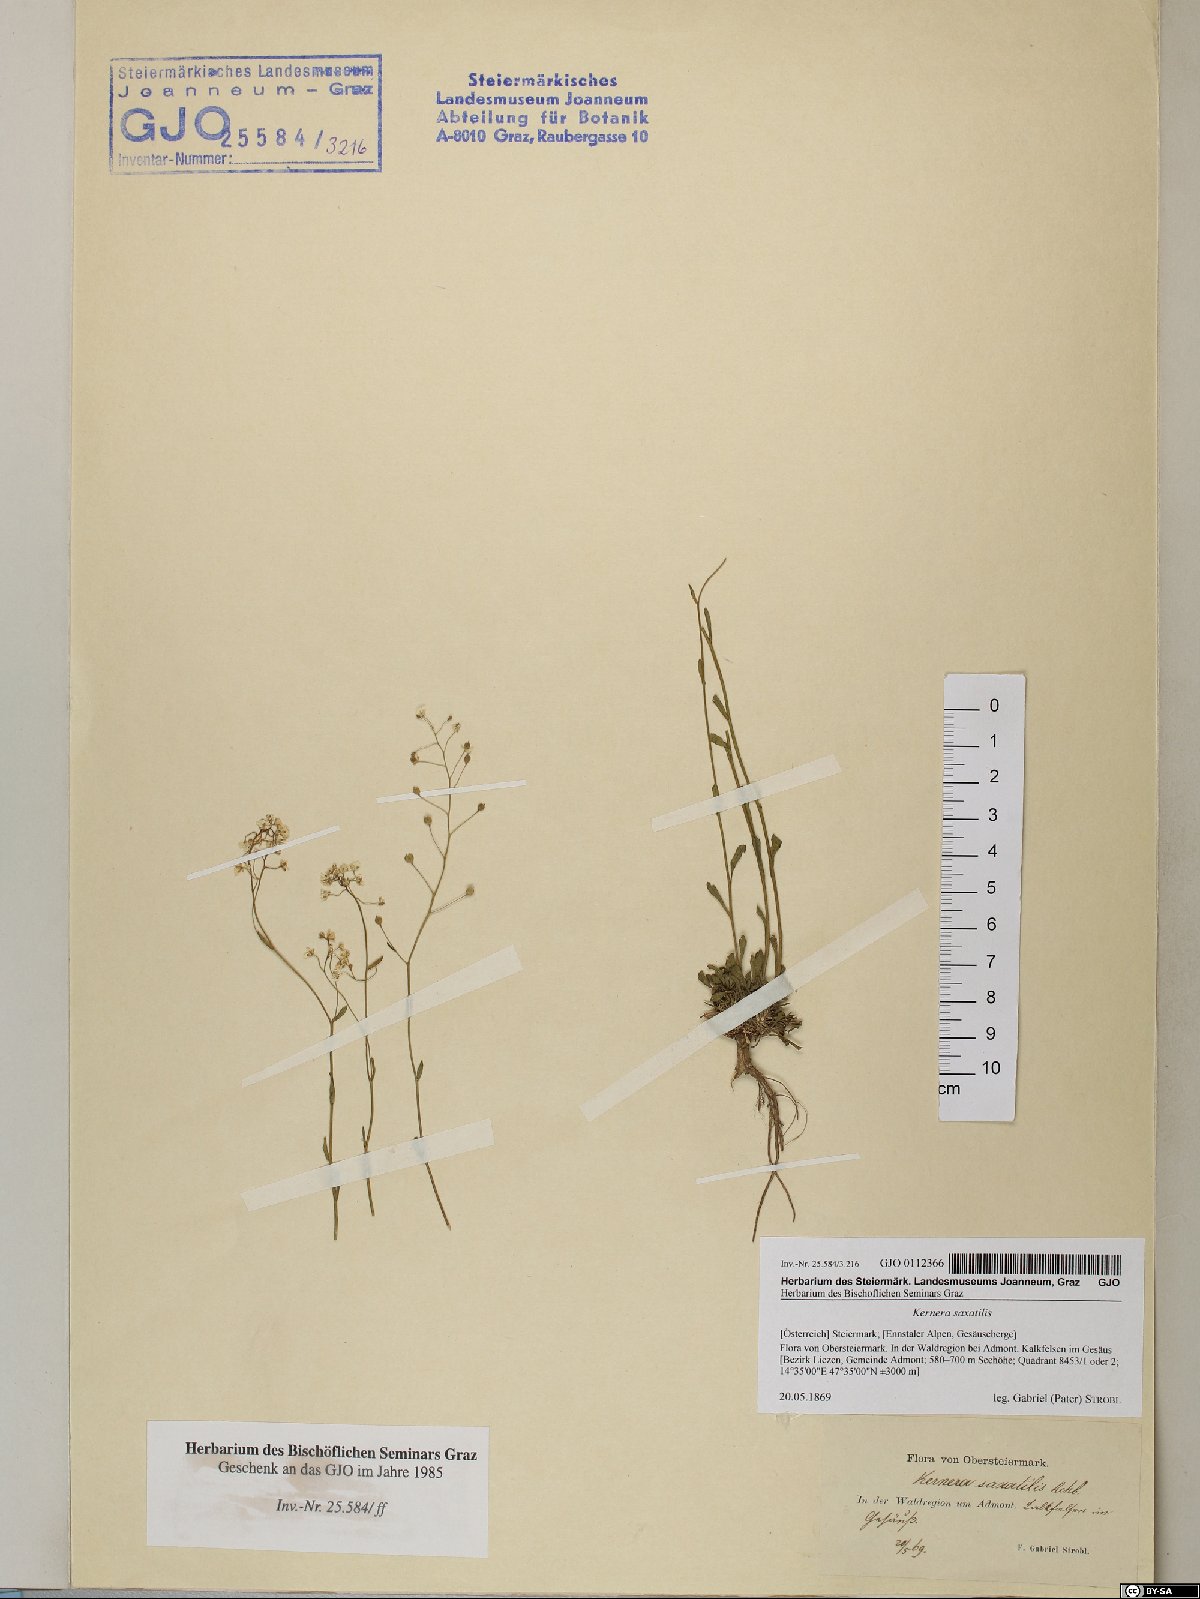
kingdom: Plantae
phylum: Tracheophyta
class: Magnoliopsida
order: Brassicales
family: Brassicaceae
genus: Kernera
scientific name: Kernera saxatilis
